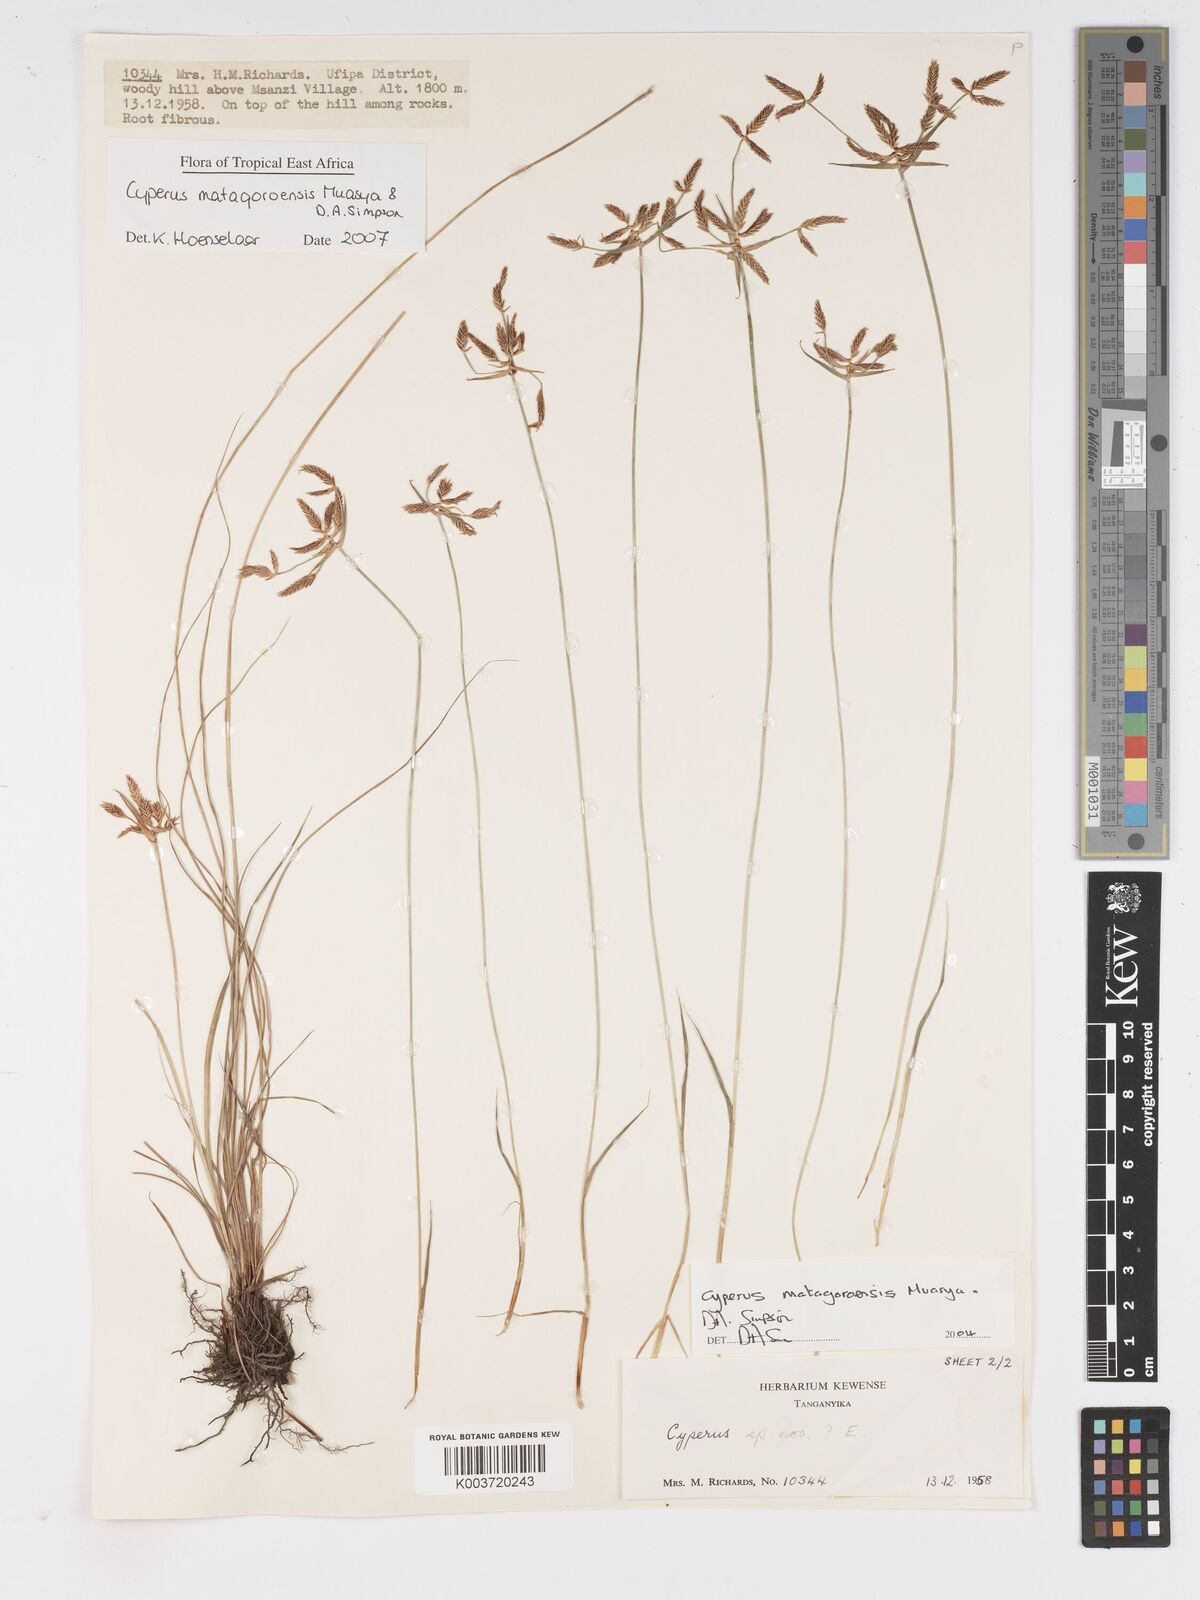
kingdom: Plantae
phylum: Tracheophyta
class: Liliopsida
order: Poales
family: Cyperaceae
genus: Cyperus
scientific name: Cyperus matagoroensis
